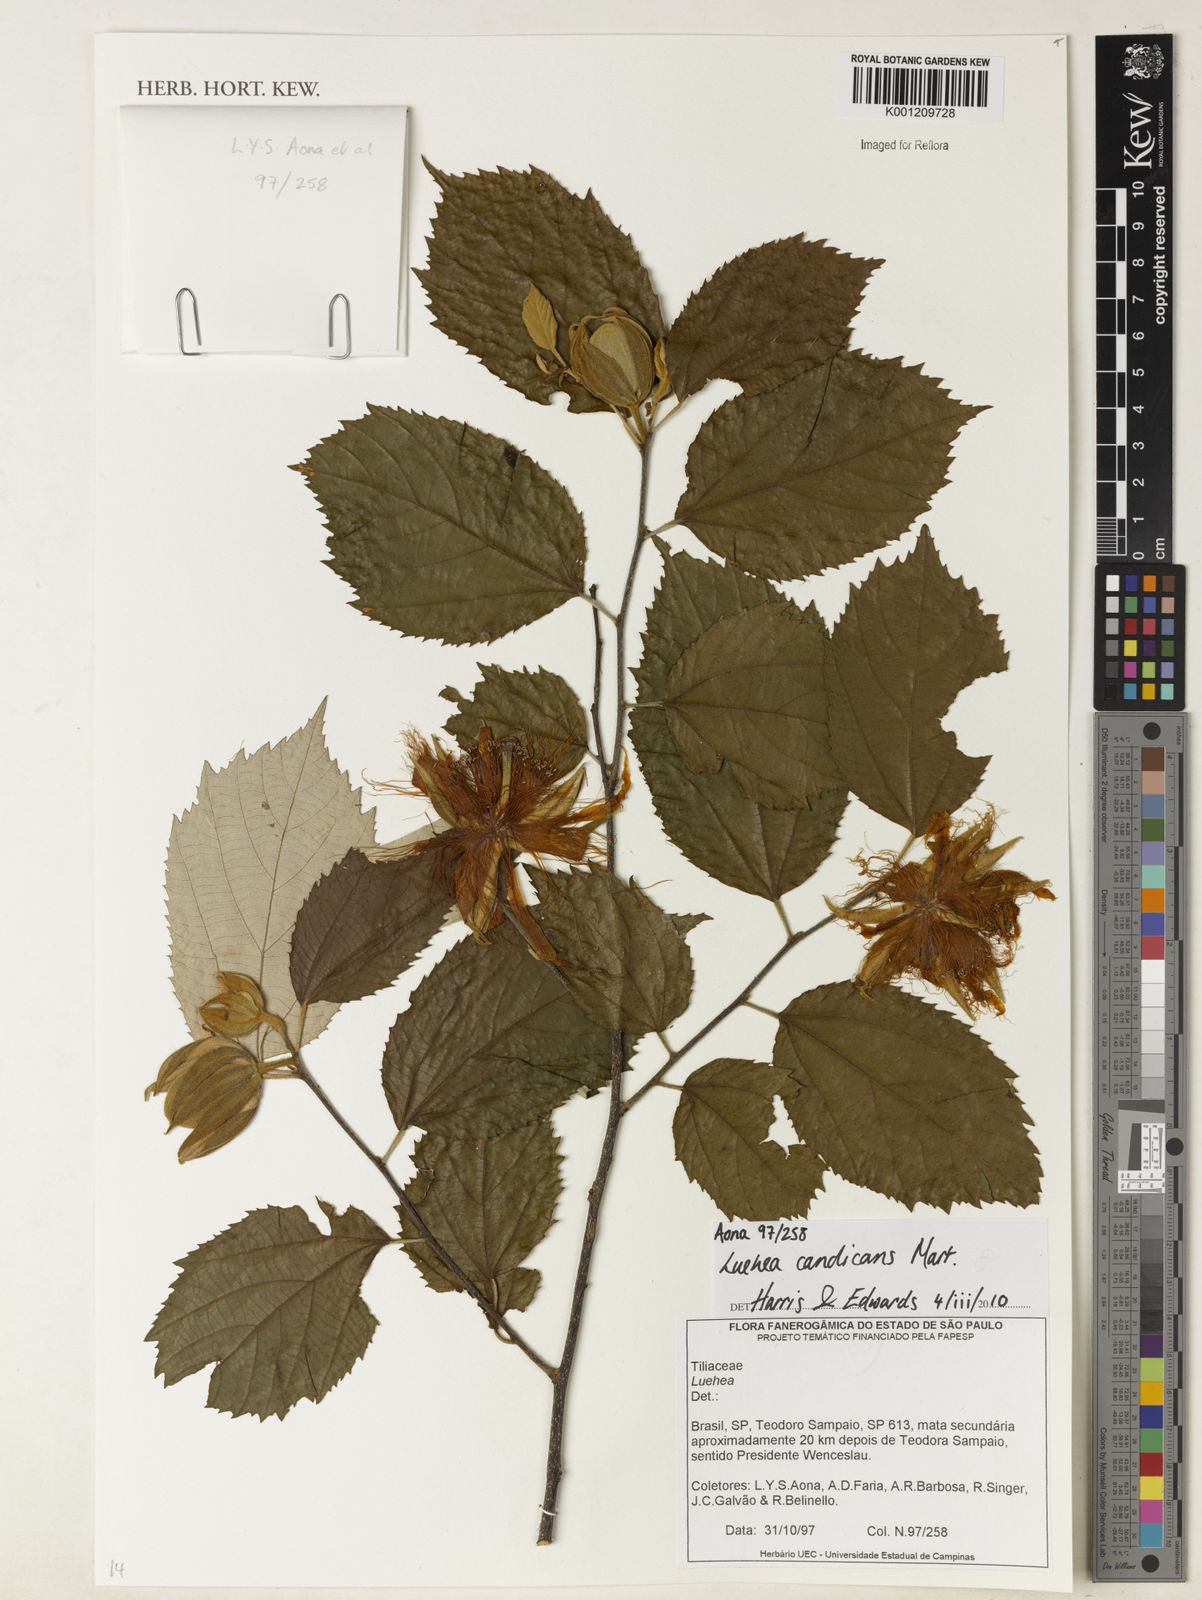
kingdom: Plantae
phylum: Tracheophyta
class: Magnoliopsida
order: Malvales
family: Malvaceae
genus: Luehea
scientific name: Luehea candicans
